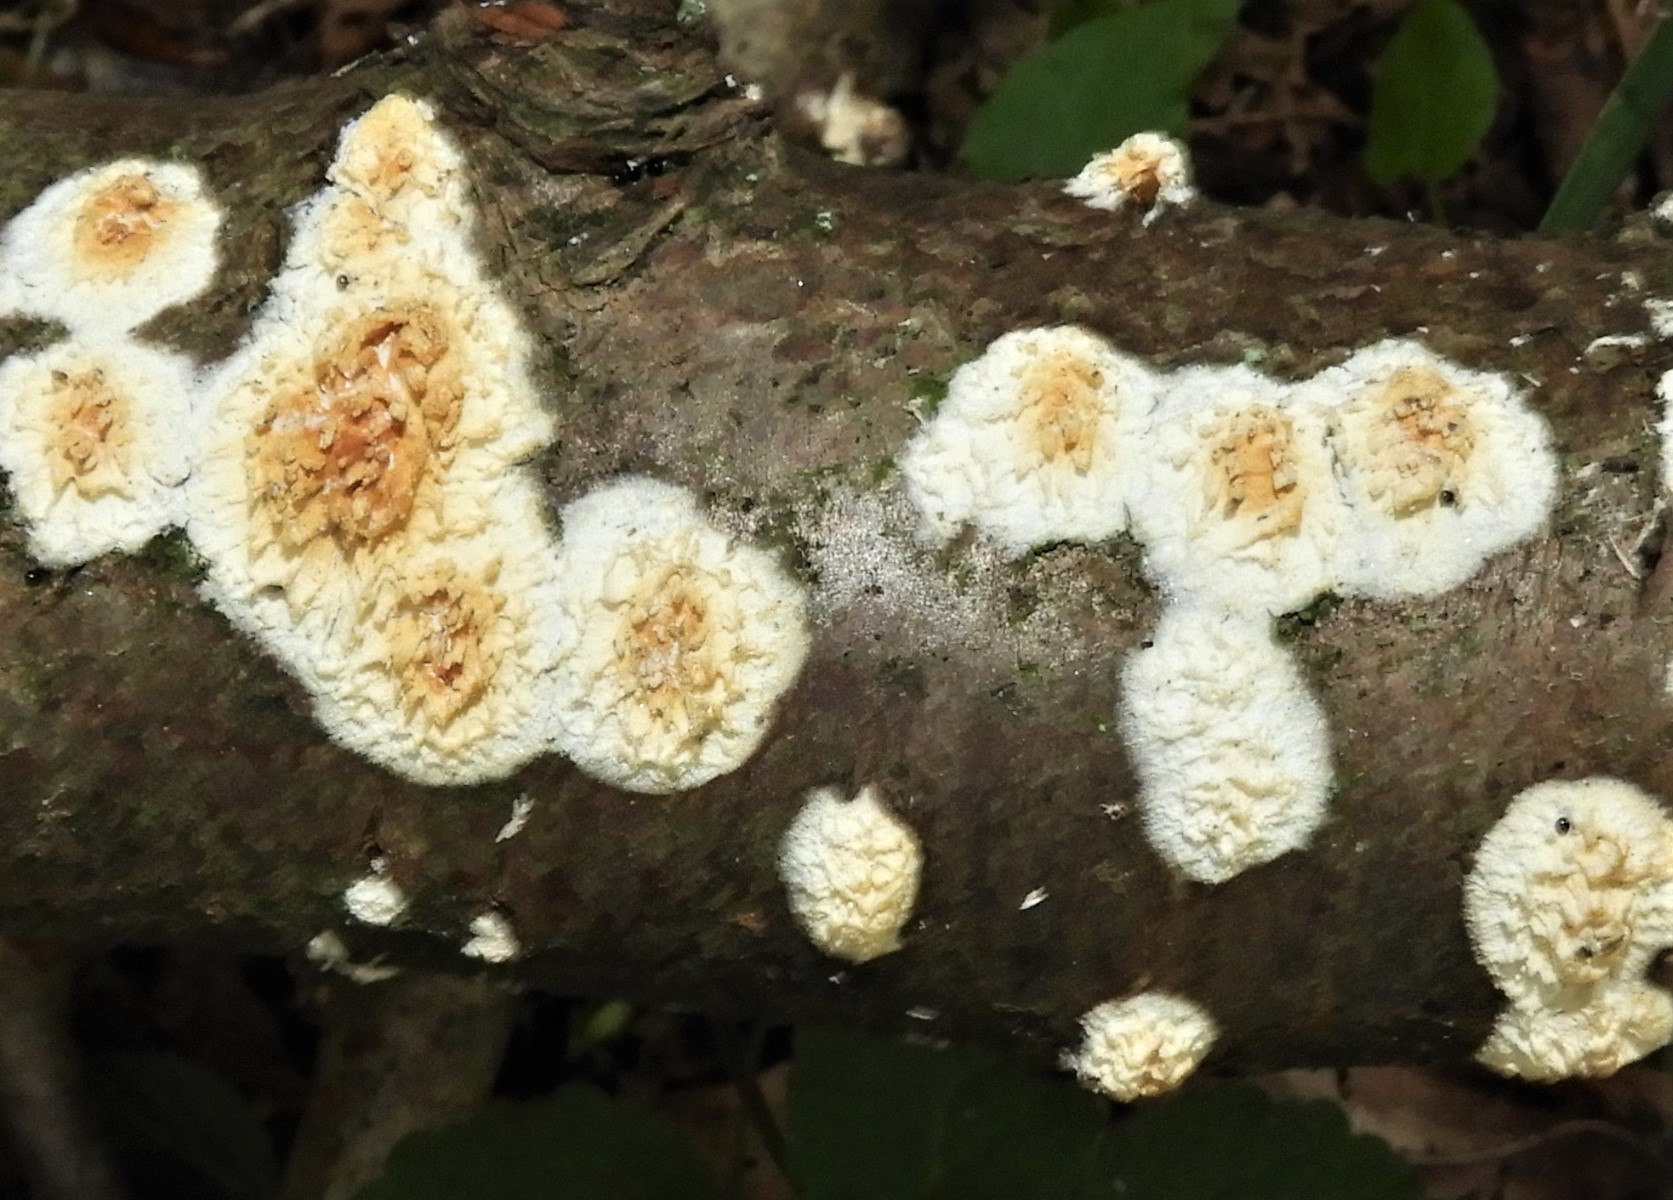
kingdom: Fungi
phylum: Basidiomycota
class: Agaricomycetes
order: Hymenochaetales
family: Schizoporaceae
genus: Xylodon
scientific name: Xylodon radula
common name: grovtandet kalkskind
